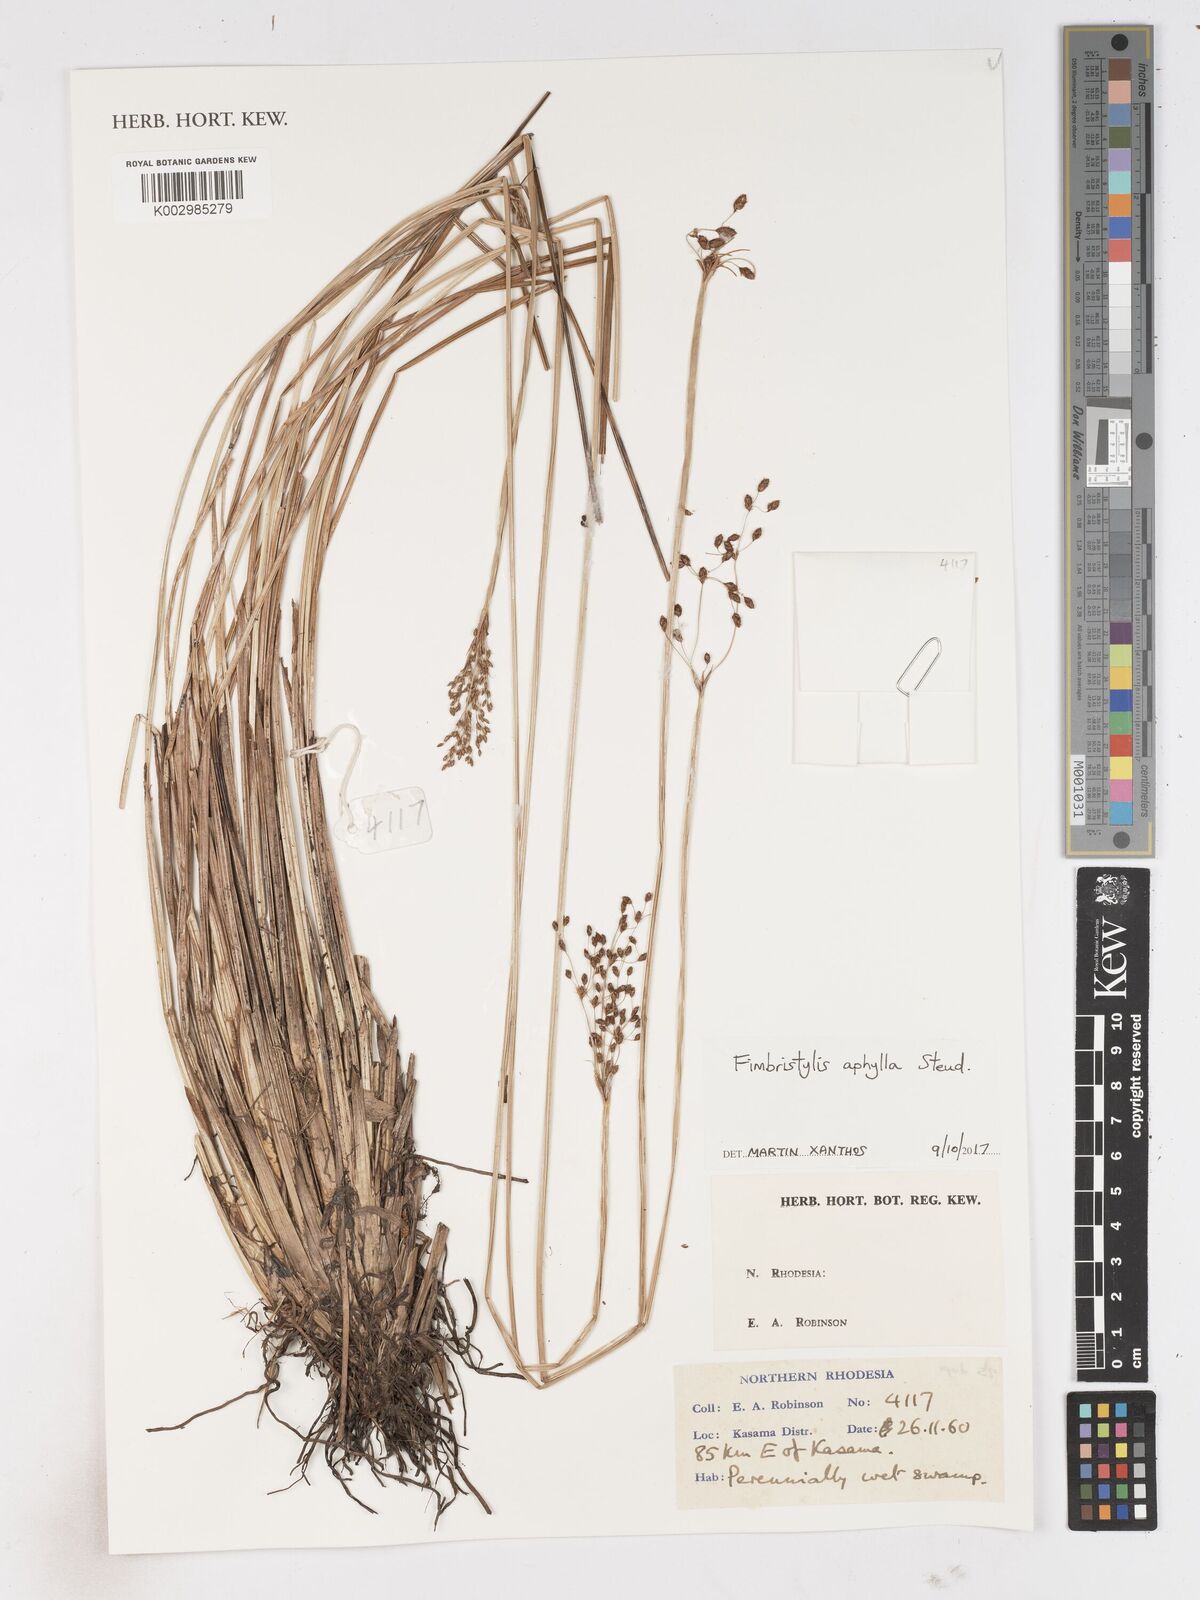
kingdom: Plantae
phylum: Tracheophyta
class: Liliopsida
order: Poales
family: Cyperaceae
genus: Fimbristylis
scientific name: Fimbristylis aphylla
